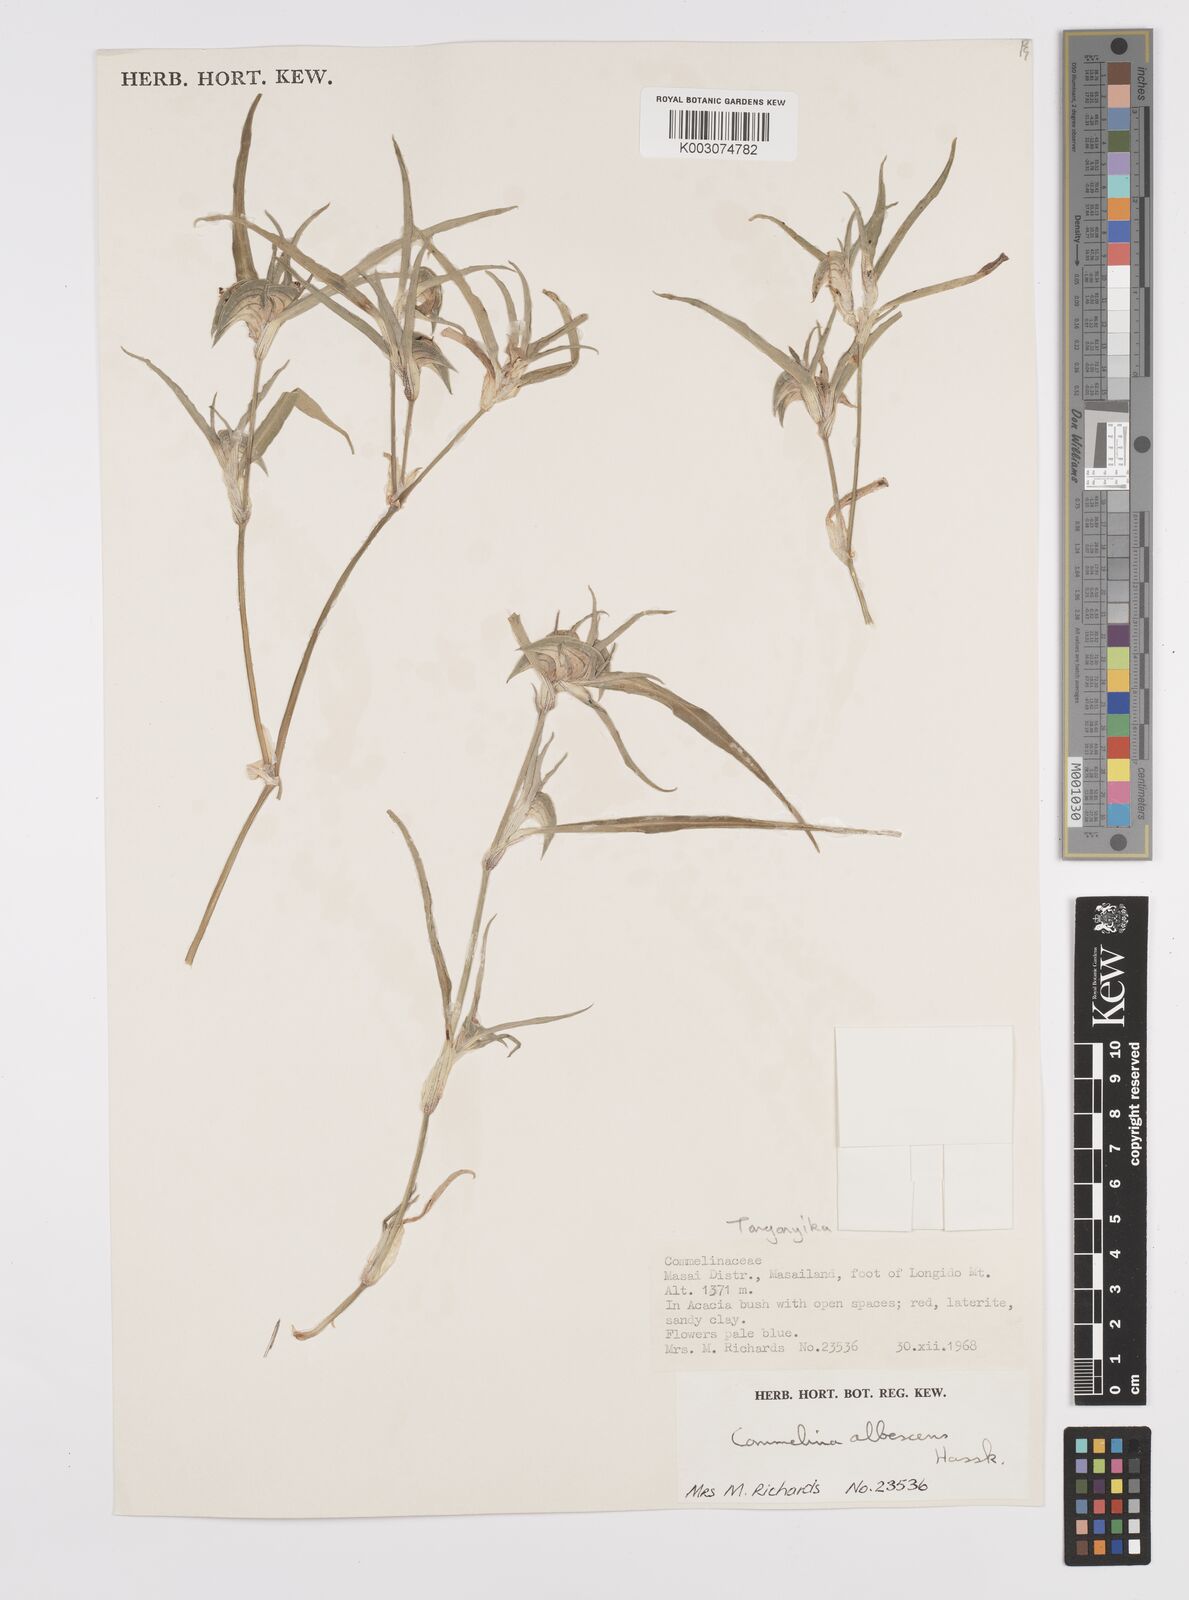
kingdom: Plantae
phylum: Tracheophyta
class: Liliopsida
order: Commelinales
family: Commelinaceae
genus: Commelina
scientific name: Commelina albescens
